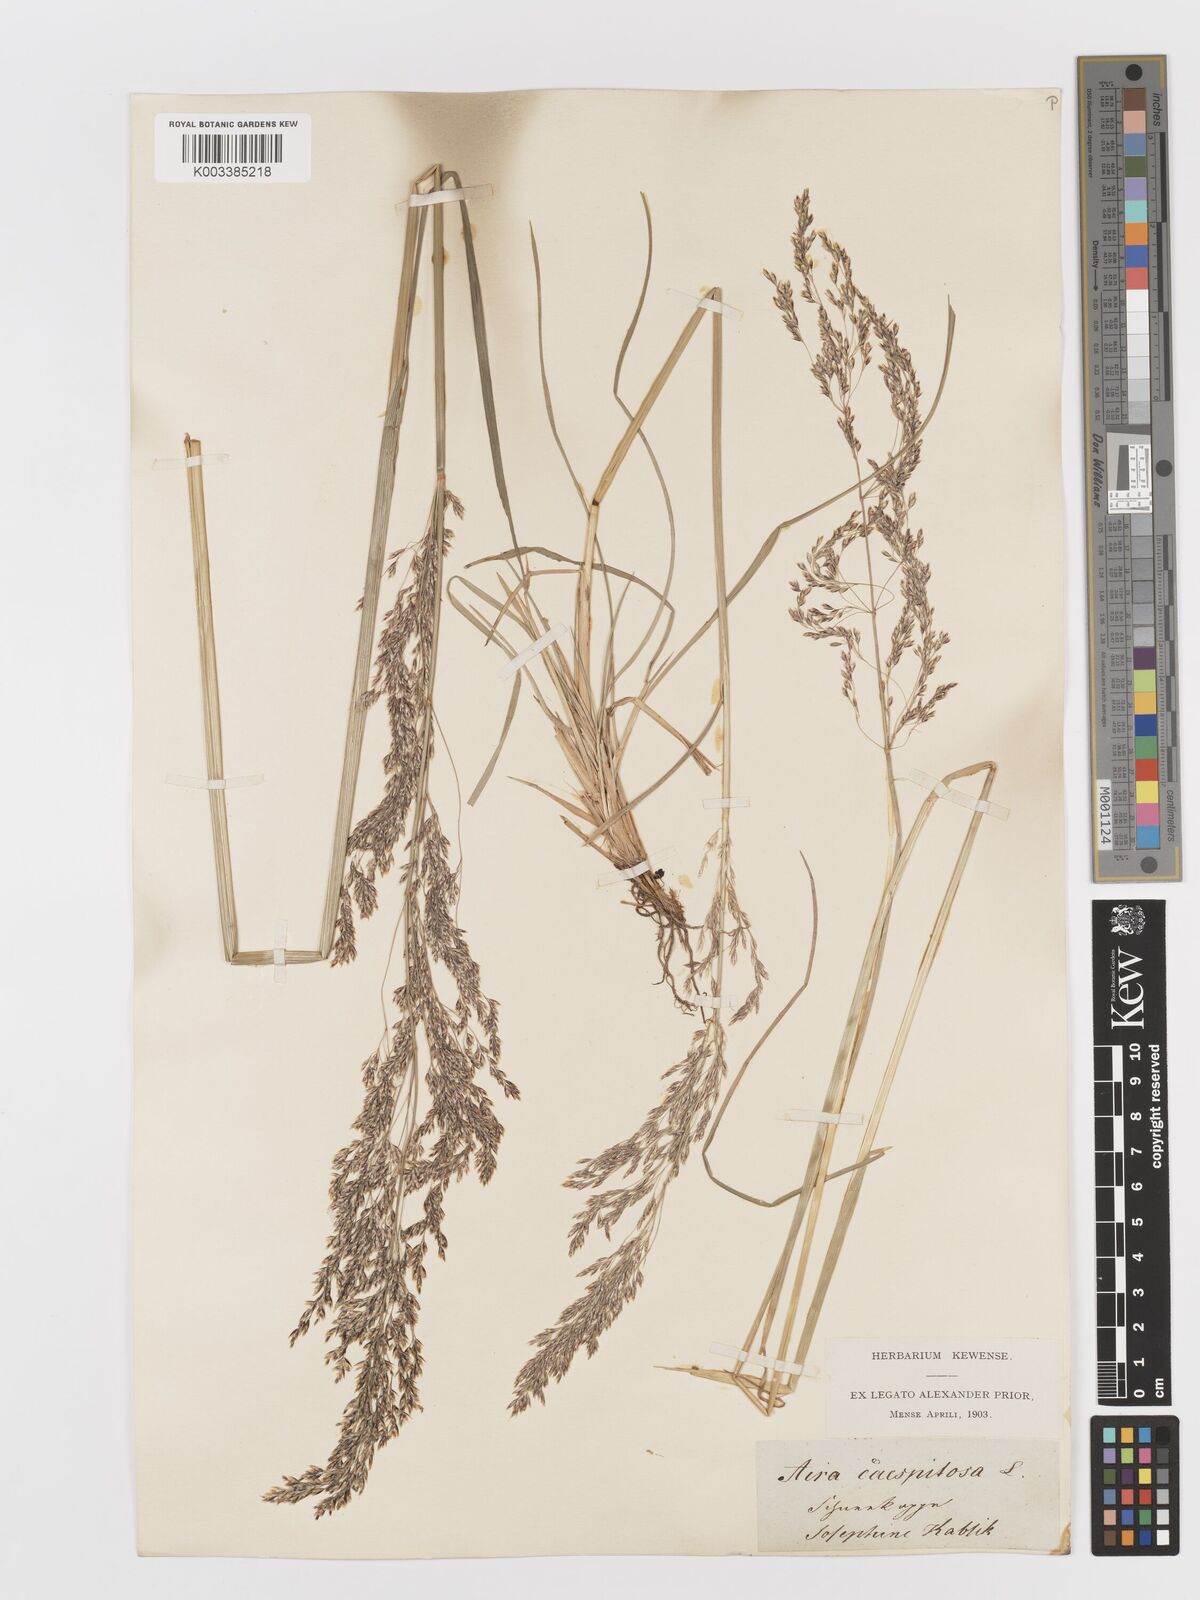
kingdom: Plantae
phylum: Tracheophyta
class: Liliopsida
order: Poales
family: Poaceae
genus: Deschampsia
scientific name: Deschampsia cespitosa
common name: Tufted hair-grass
